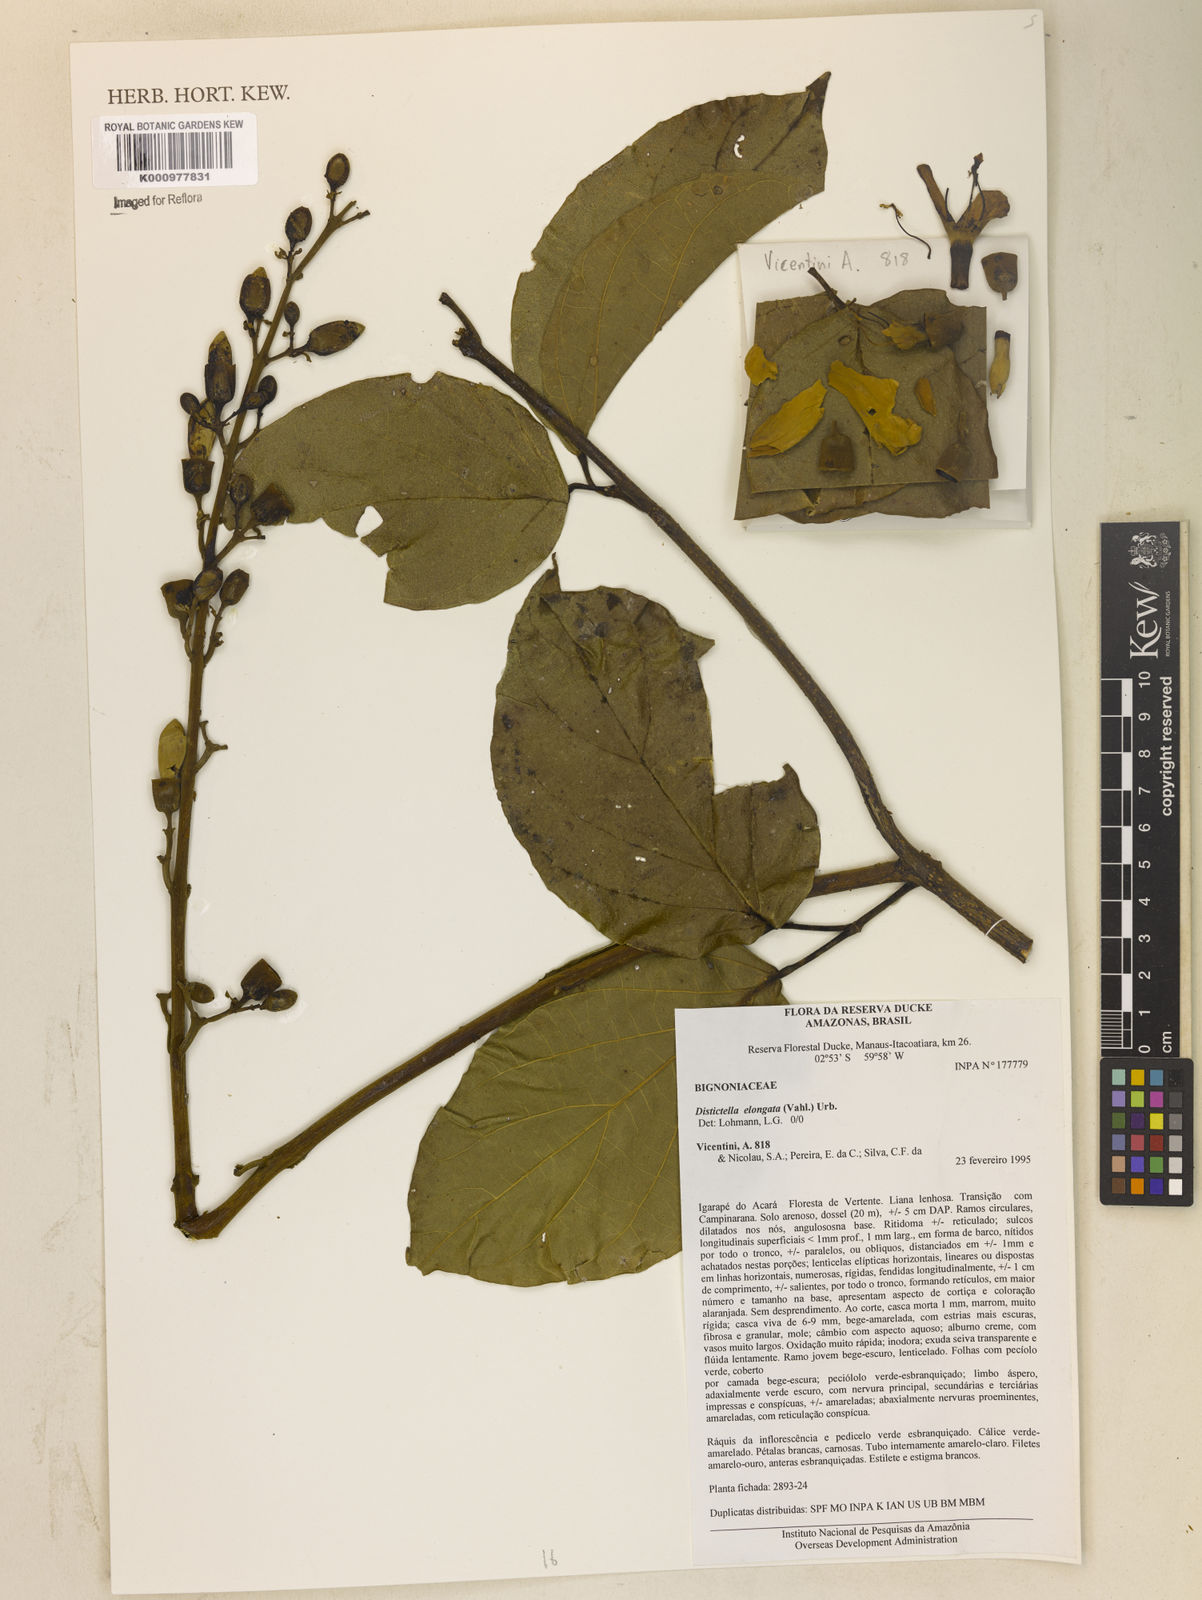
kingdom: Plantae
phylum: Tracheophyta
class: Magnoliopsida
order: Lamiales
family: Bignoniaceae
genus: Amphilophium
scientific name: Amphilophium elongatum
